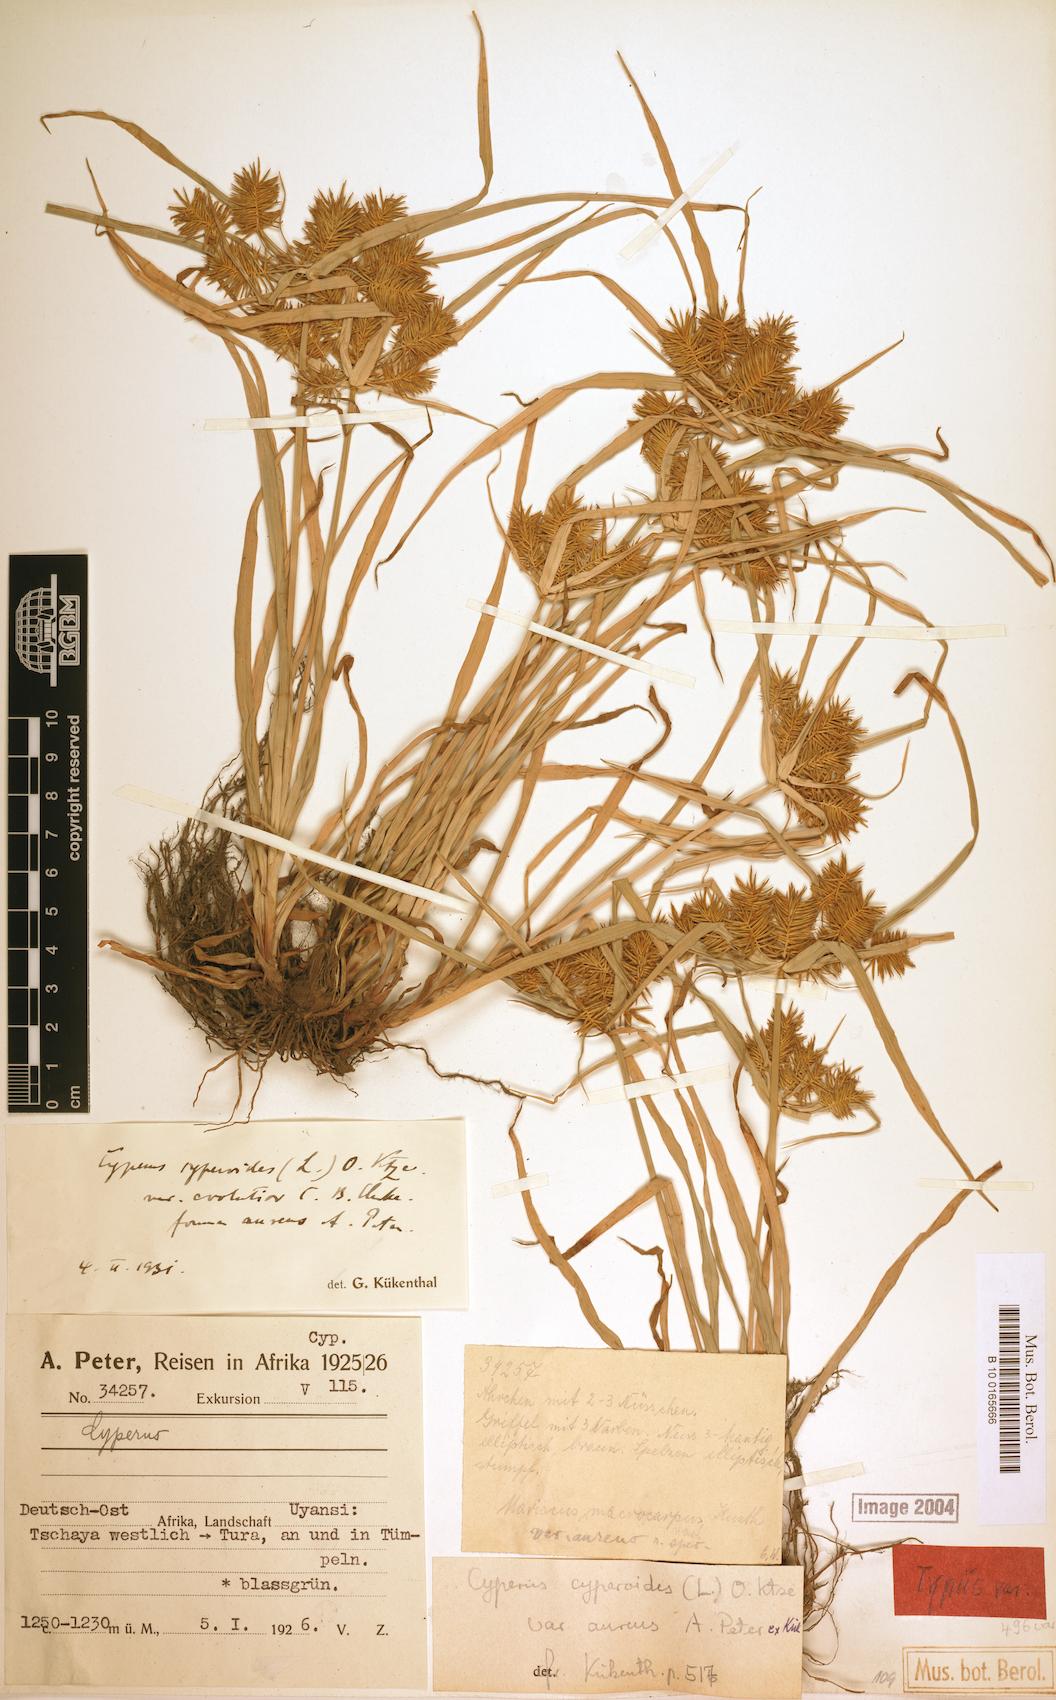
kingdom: Plantae
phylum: Tracheophyta
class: Liliopsida
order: Poales
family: Cyperaceae
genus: Cyperus
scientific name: Cyperus cyperoides
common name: Pacific island flat sedge
